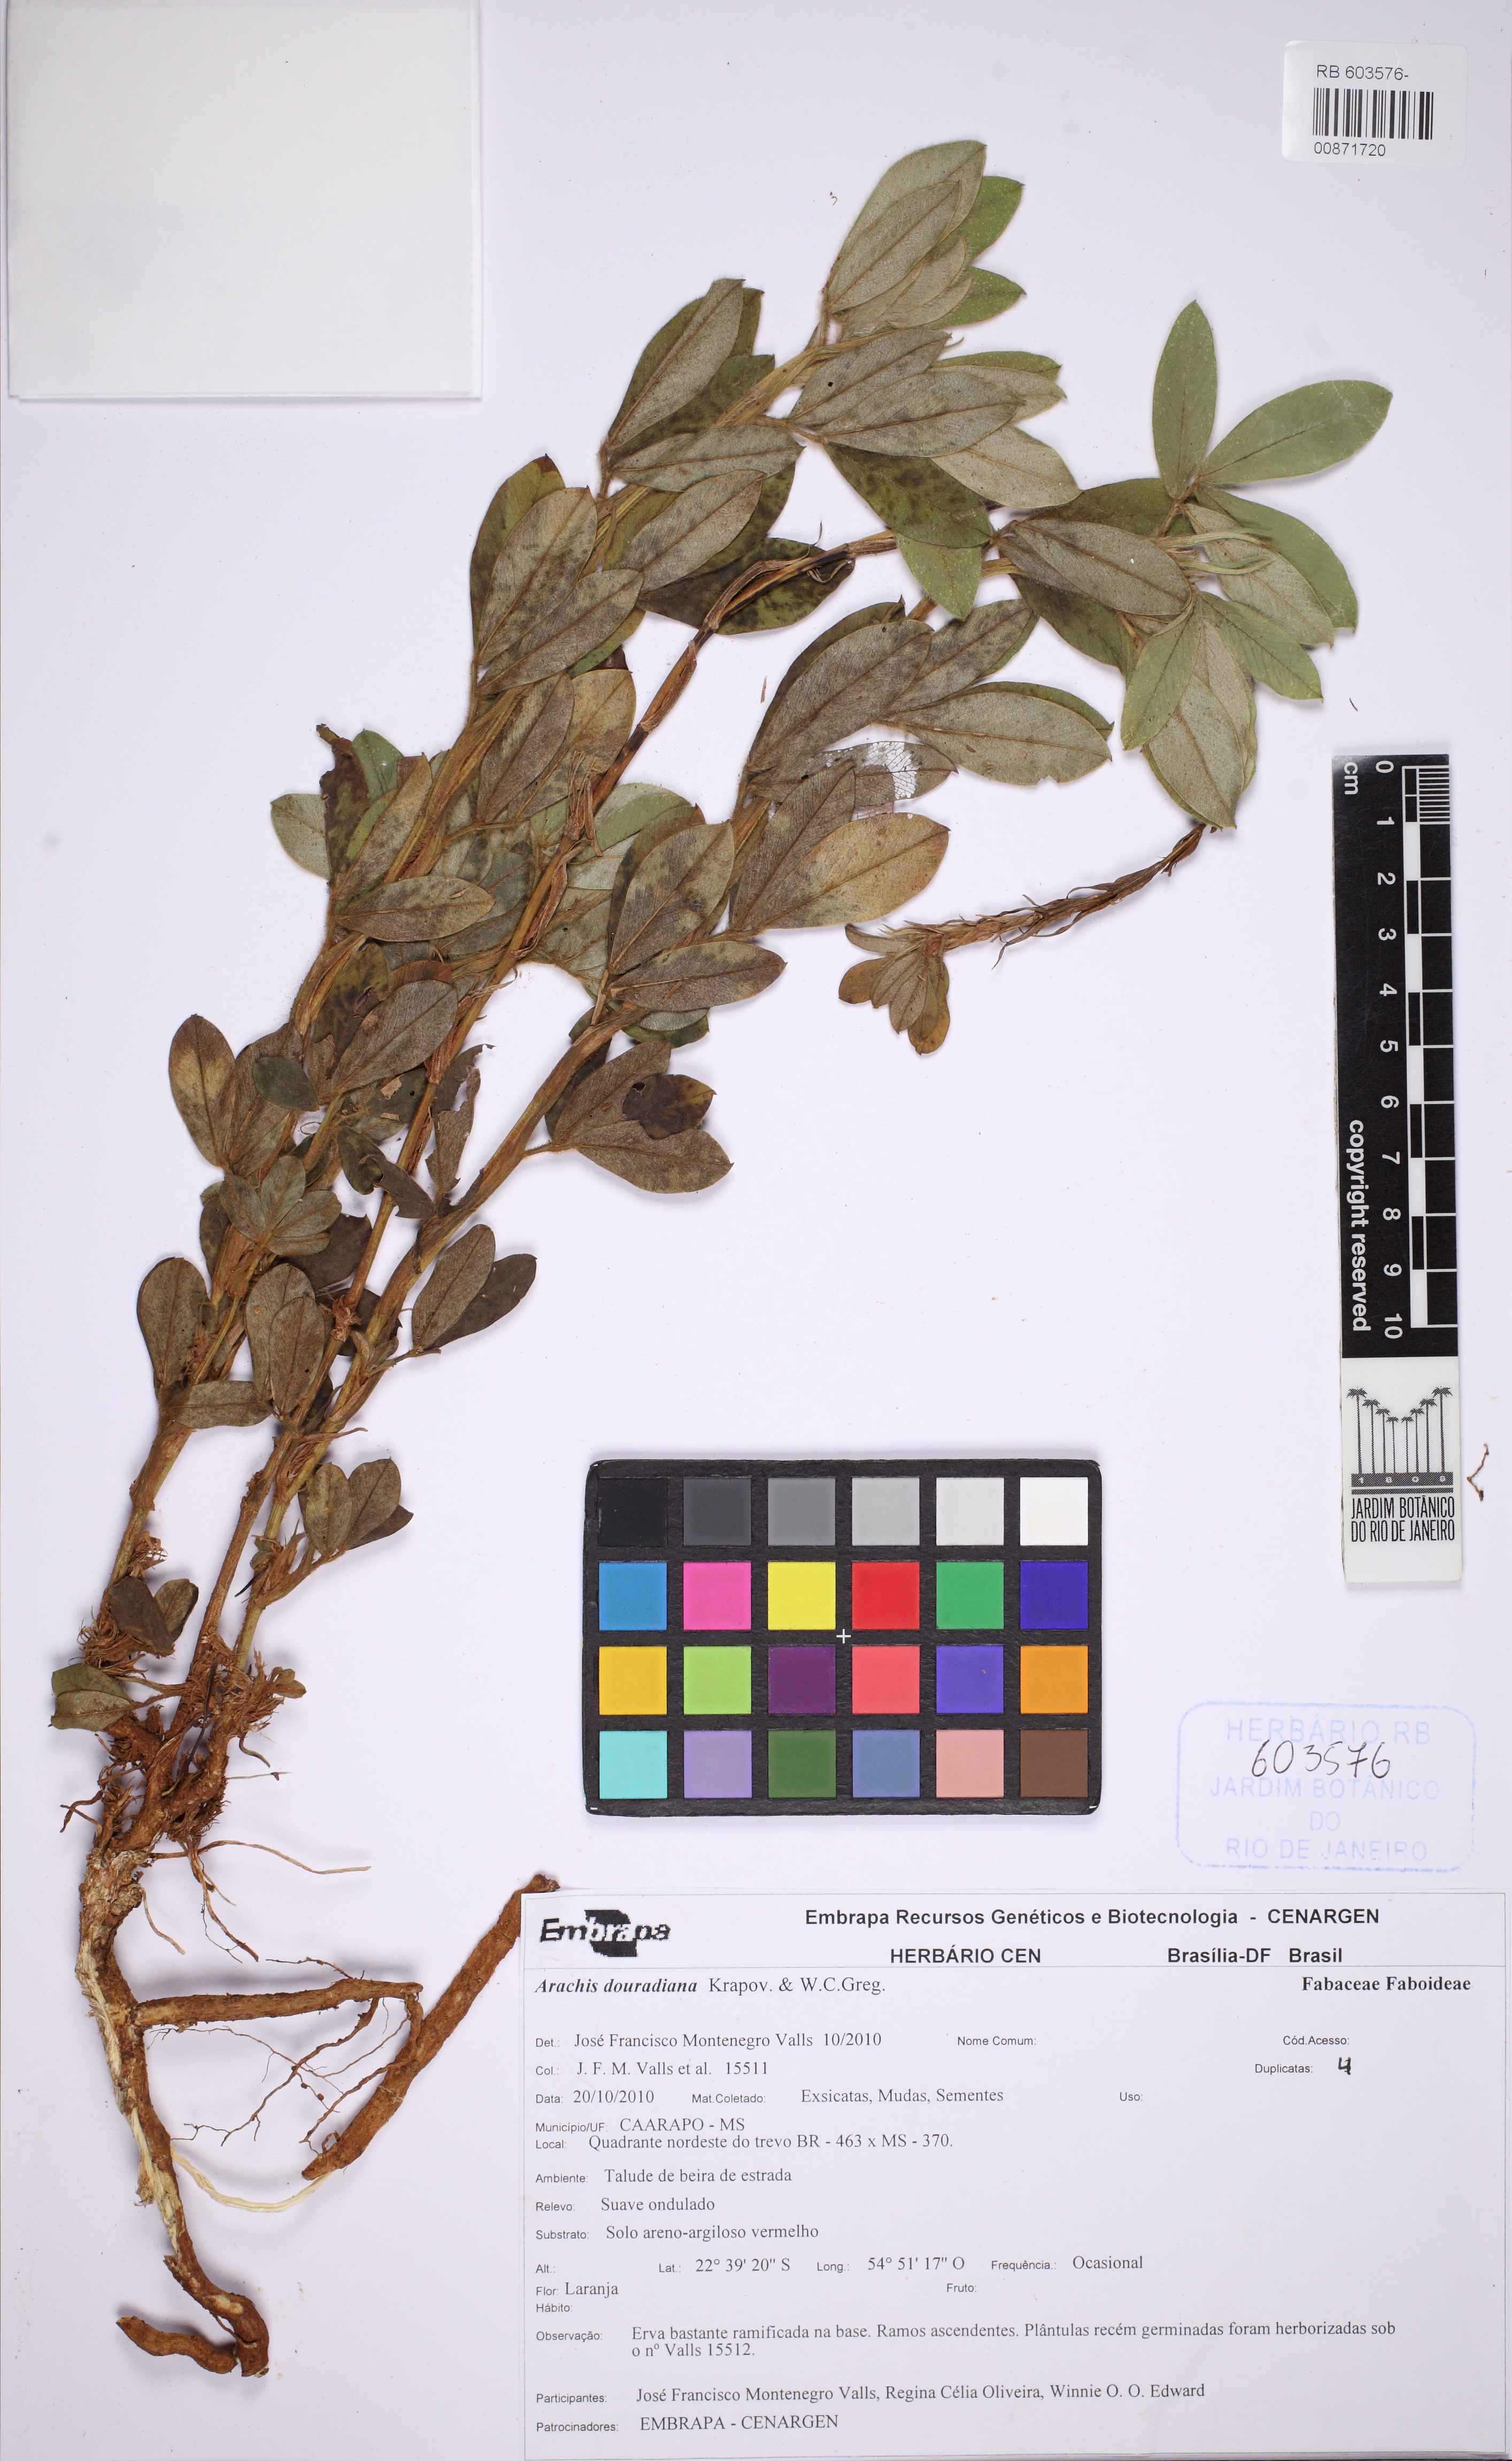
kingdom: Plantae
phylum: Tracheophyta
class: Magnoliopsida
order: Fabales
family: Fabaceae
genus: Arachis
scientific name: Arachis douradiana
